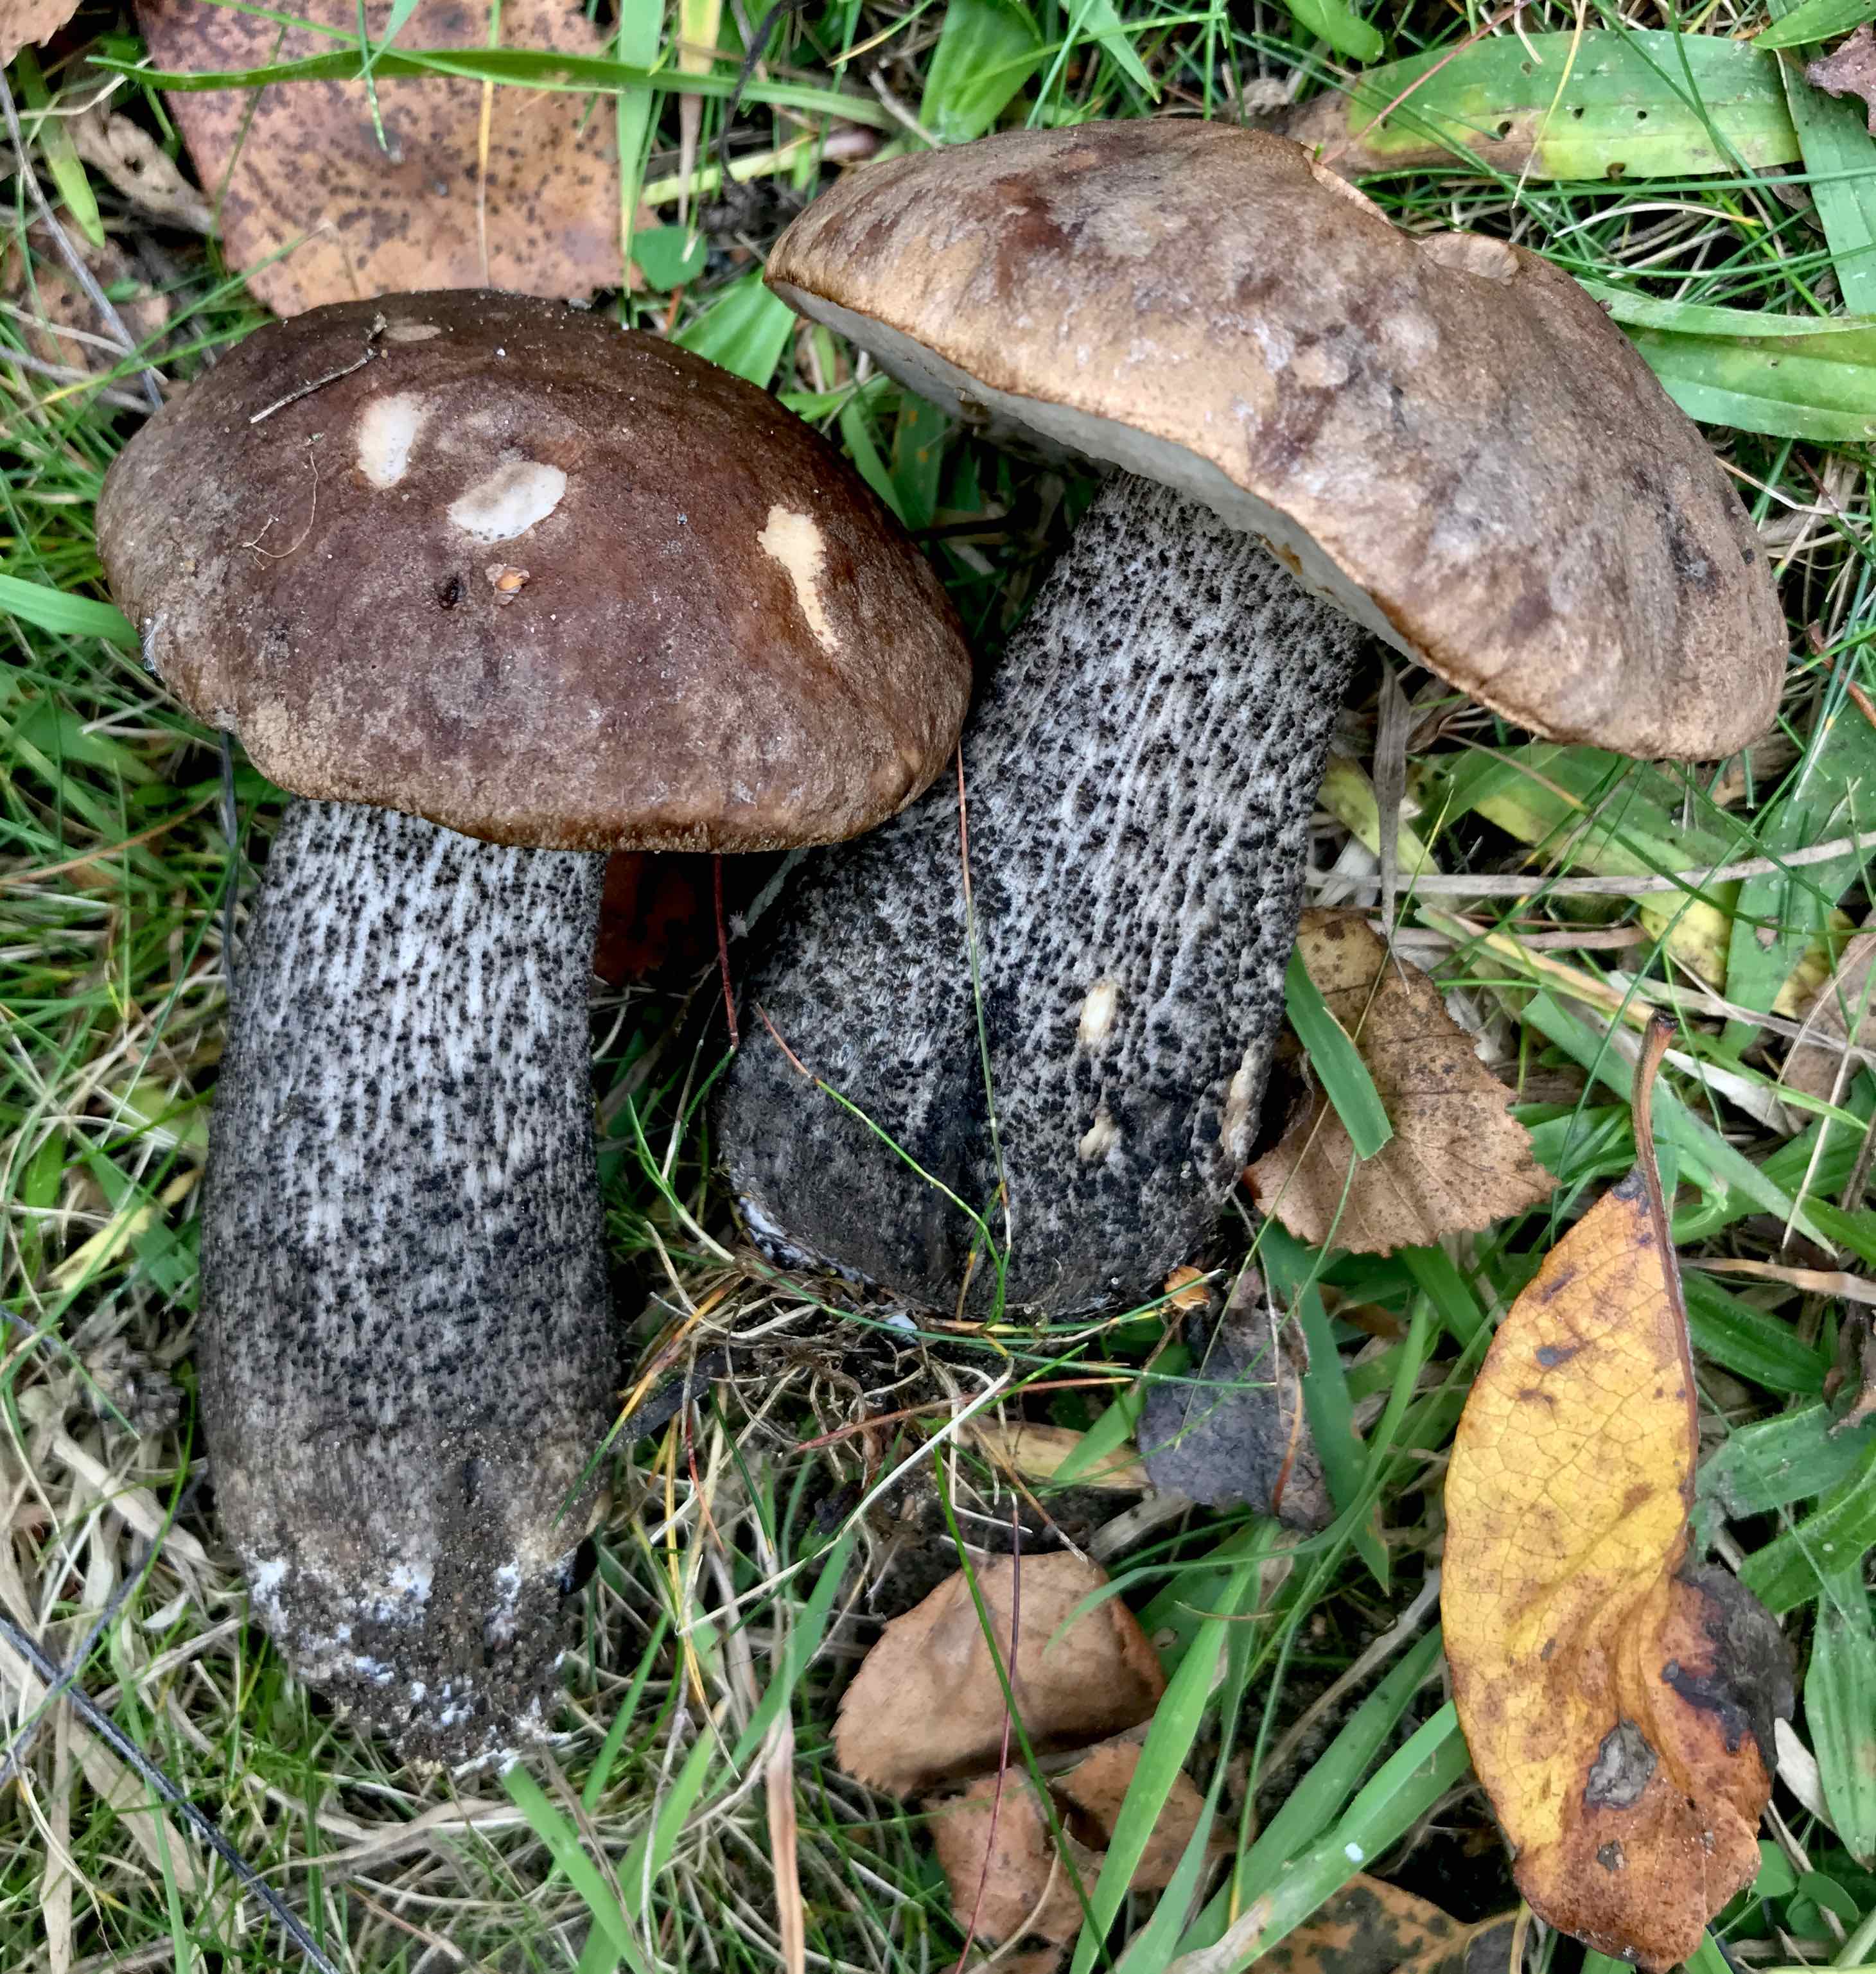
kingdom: Fungi
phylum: Basidiomycota
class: Agaricomycetes
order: Boletales
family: Boletaceae
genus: Leccinum
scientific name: Leccinum melaneum
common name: mørk skælrørhat
